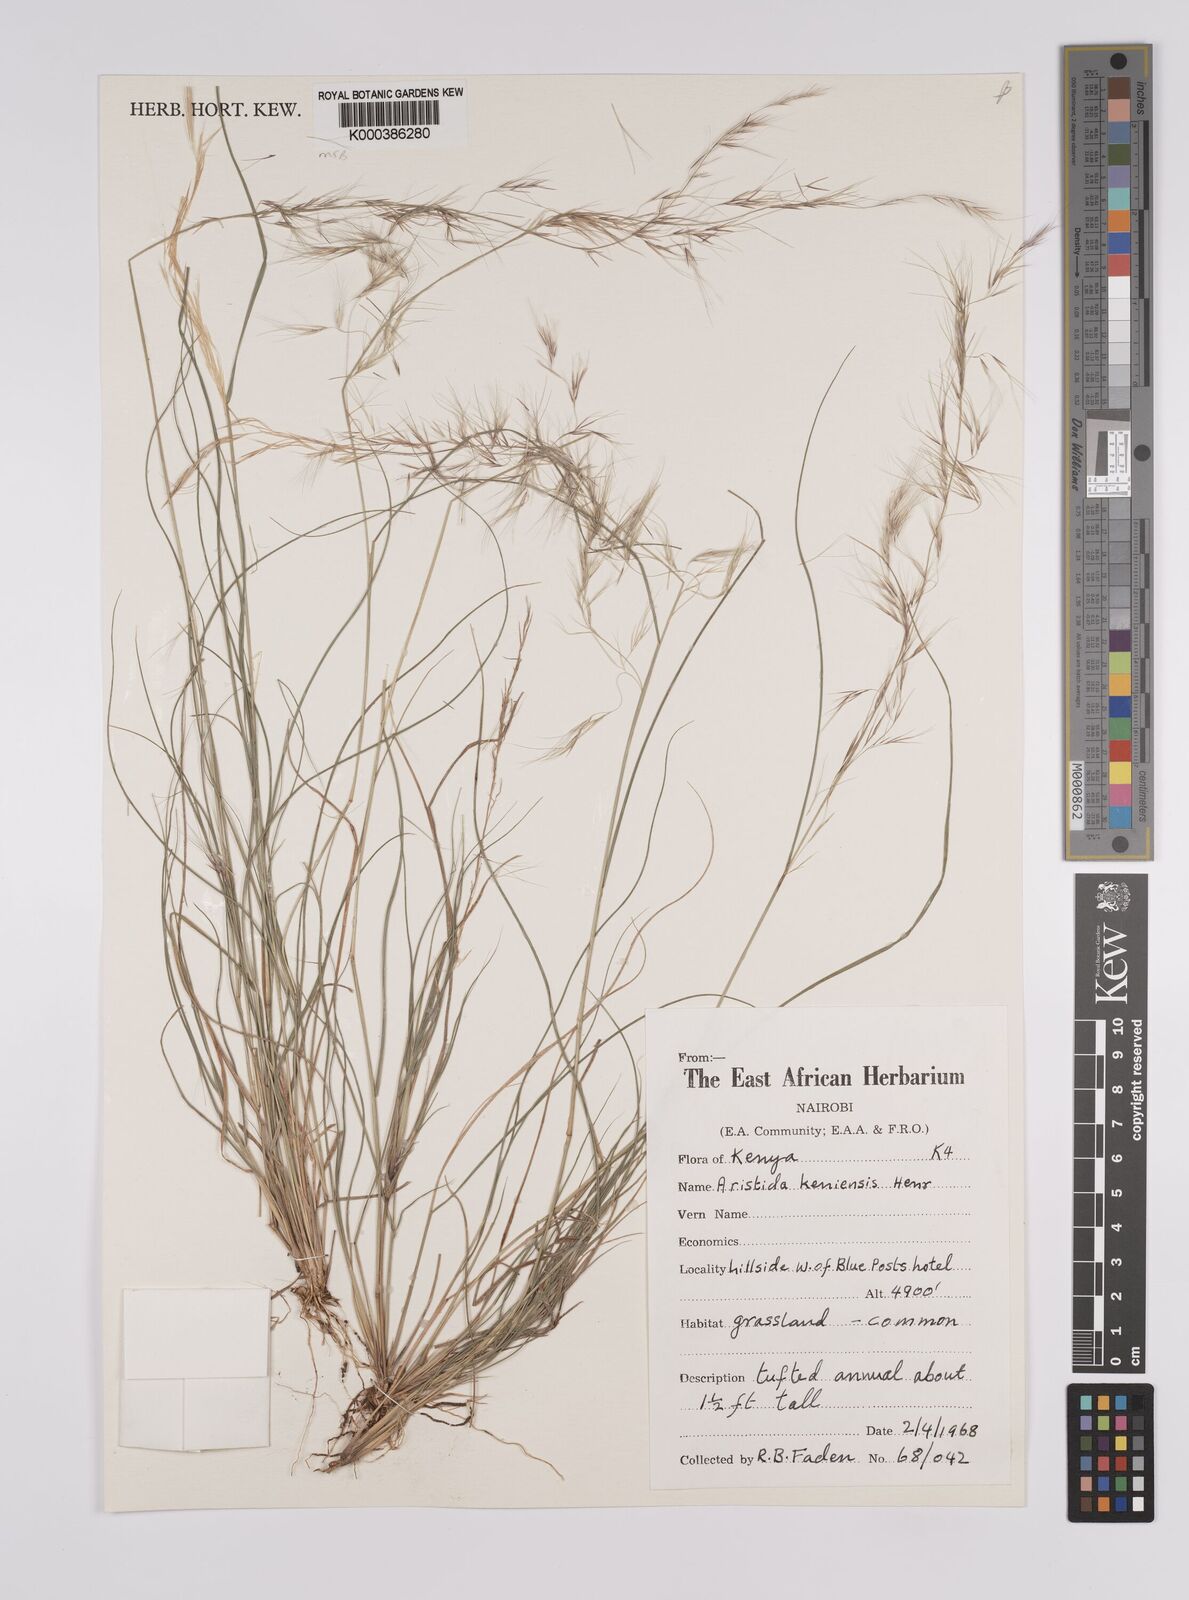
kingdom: Plantae
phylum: Tracheophyta
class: Liliopsida
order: Poales
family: Poaceae
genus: Aristida
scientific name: Aristida kenyensis
